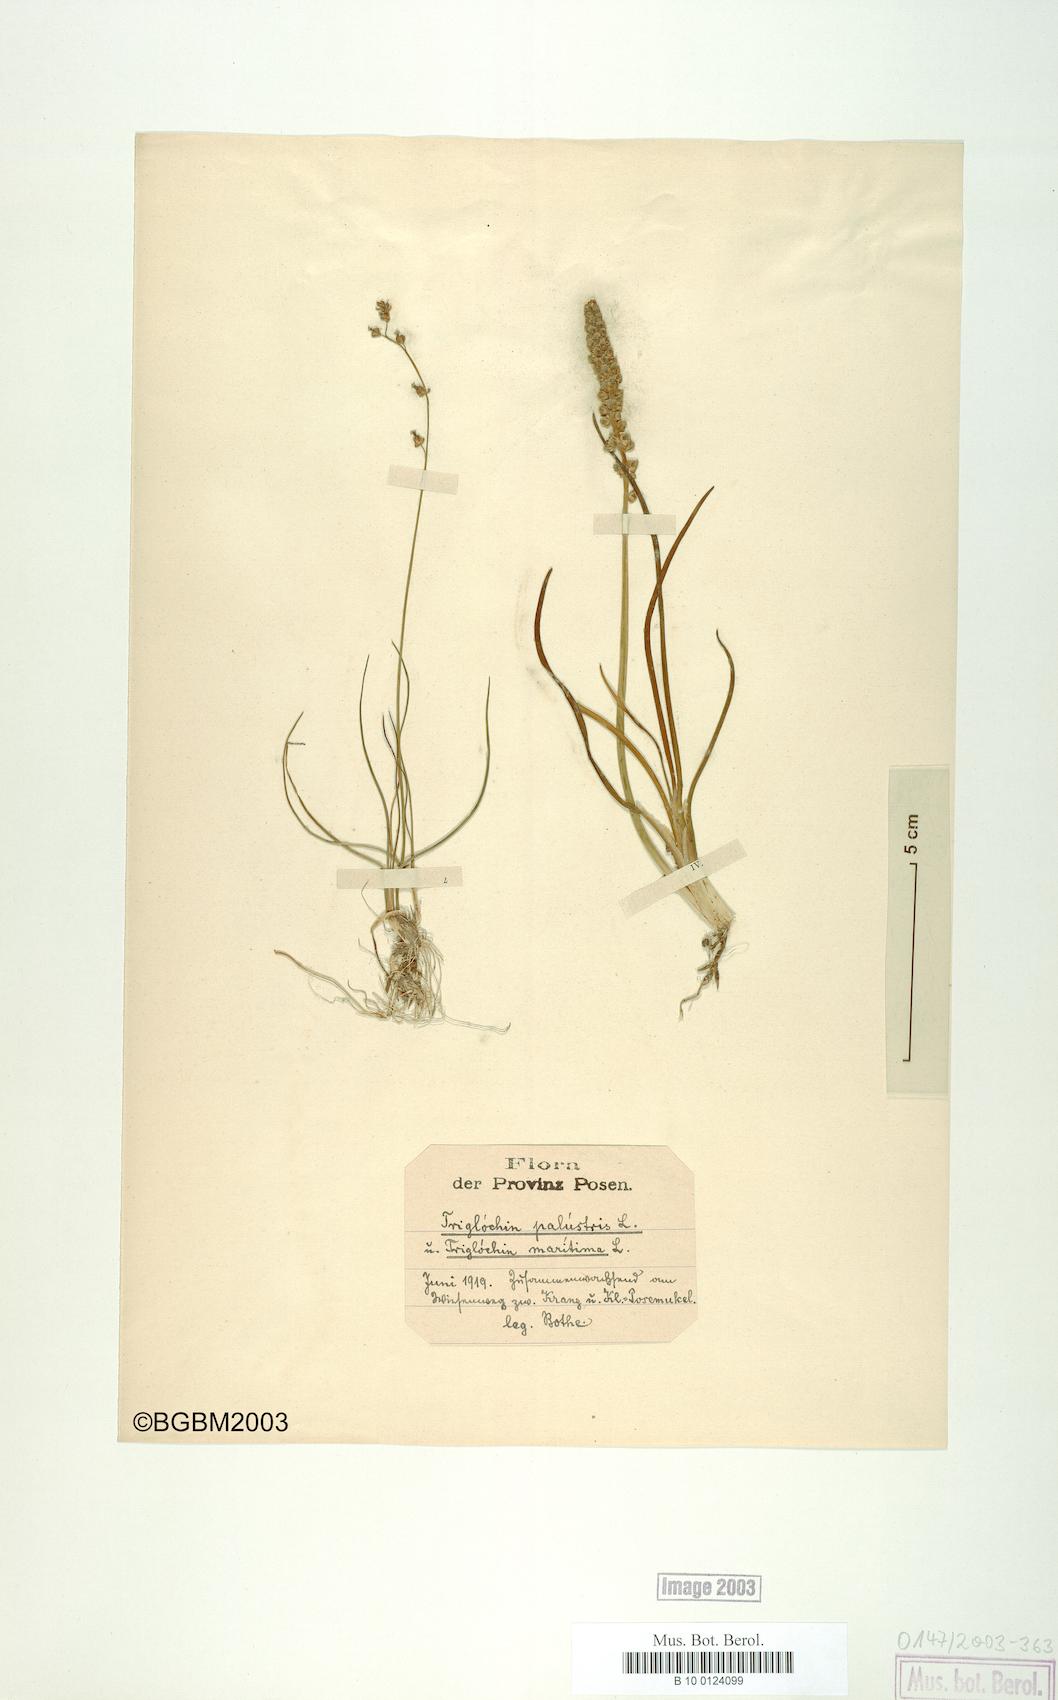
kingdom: Plantae
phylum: Tracheophyta
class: Liliopsida
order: Alismatales
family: Juncaginaceae
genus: Triglochin
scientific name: Triglochin palustris
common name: Marsh arrowgrass
